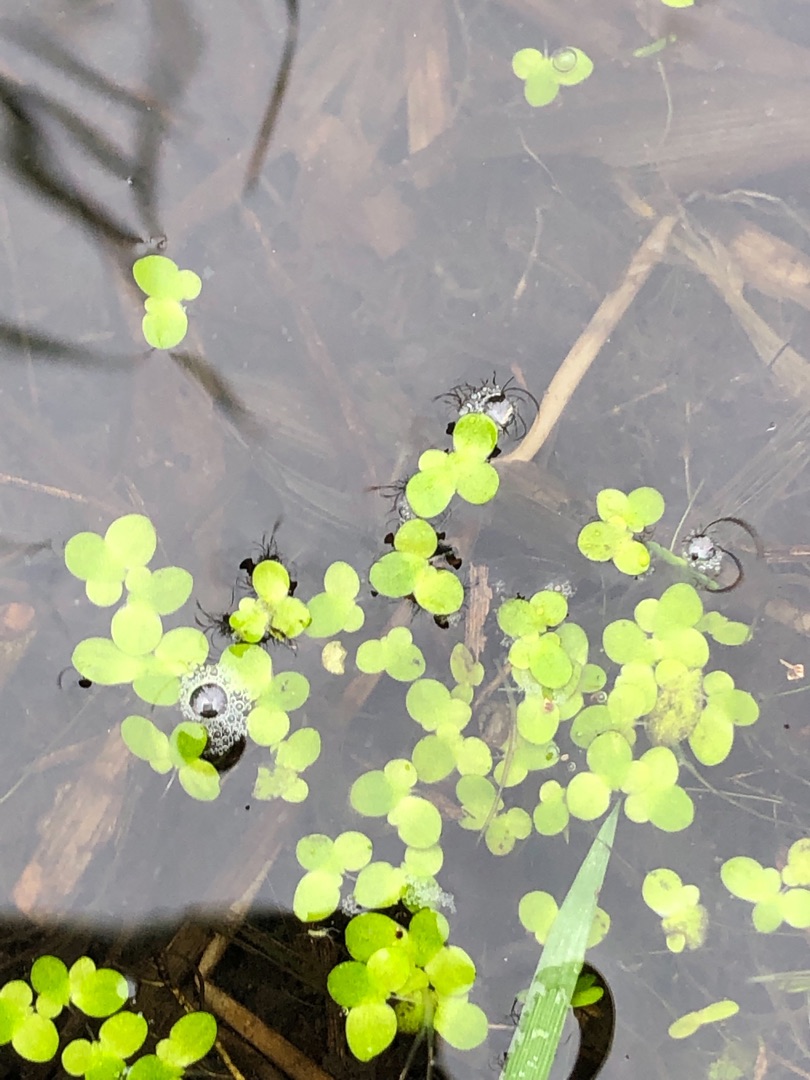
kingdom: Plantae
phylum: Tracheophyta
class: Liliopsida
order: Alismatales
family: Araceae
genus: Lemna
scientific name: Lemna minor
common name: Liden andemad
